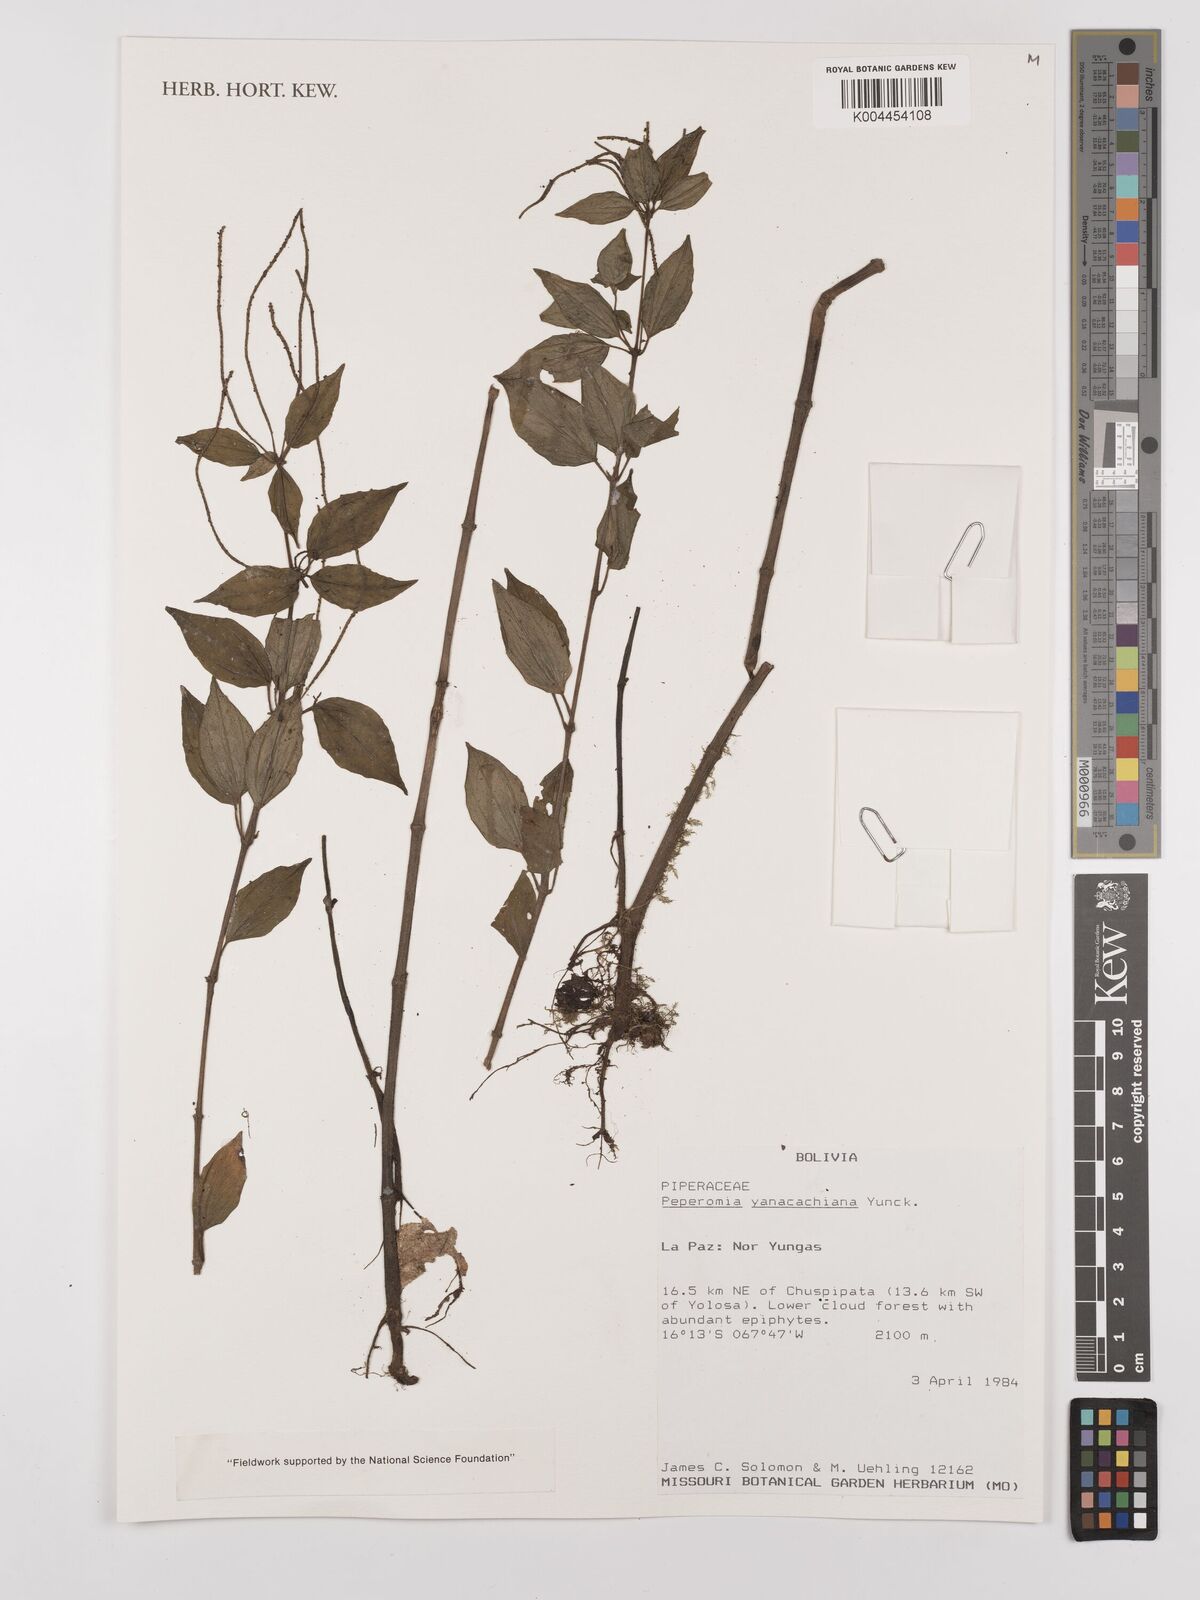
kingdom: Plantae
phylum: Tracheophyta
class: Magnoliopsida
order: Piperales
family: Piperaceae
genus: Peperomia
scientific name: Peperomia yanacachiana
